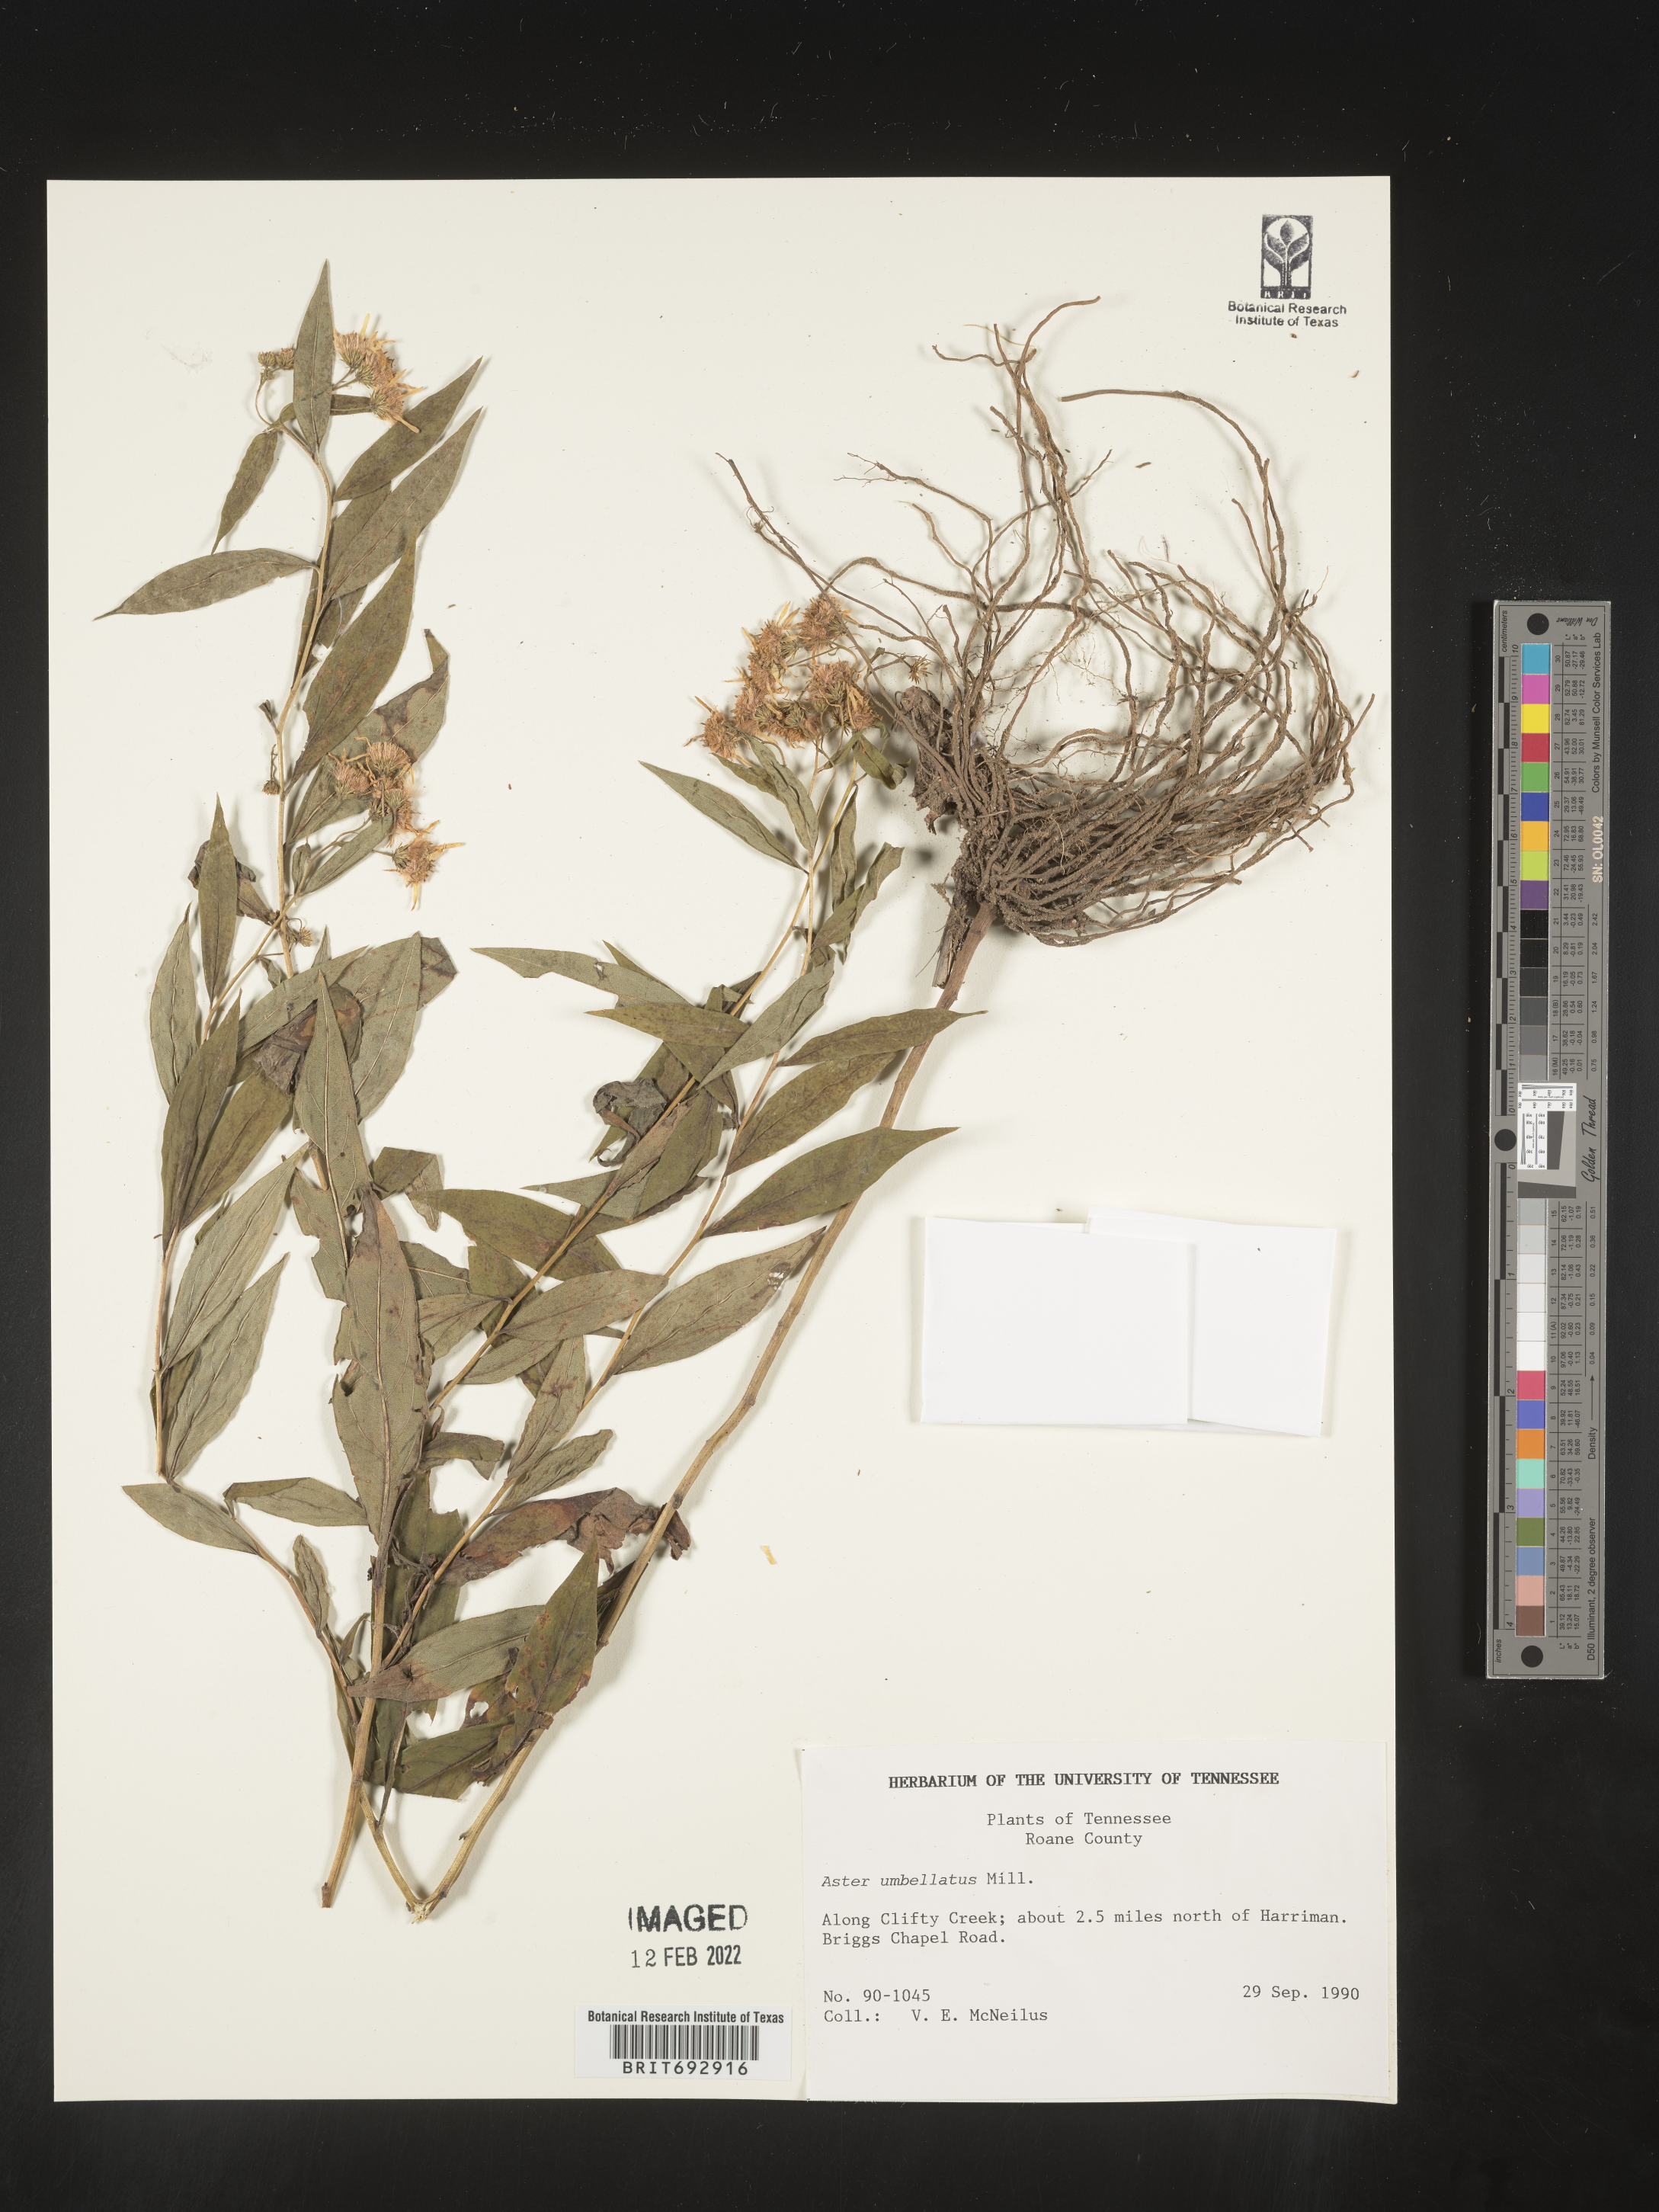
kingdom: Plantae
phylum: Tracheophyta
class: Magnoliopsida
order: Asterales
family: Asteraceae
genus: Doellingeria
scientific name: Doellingeria umbellata
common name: Flat-top white aster
